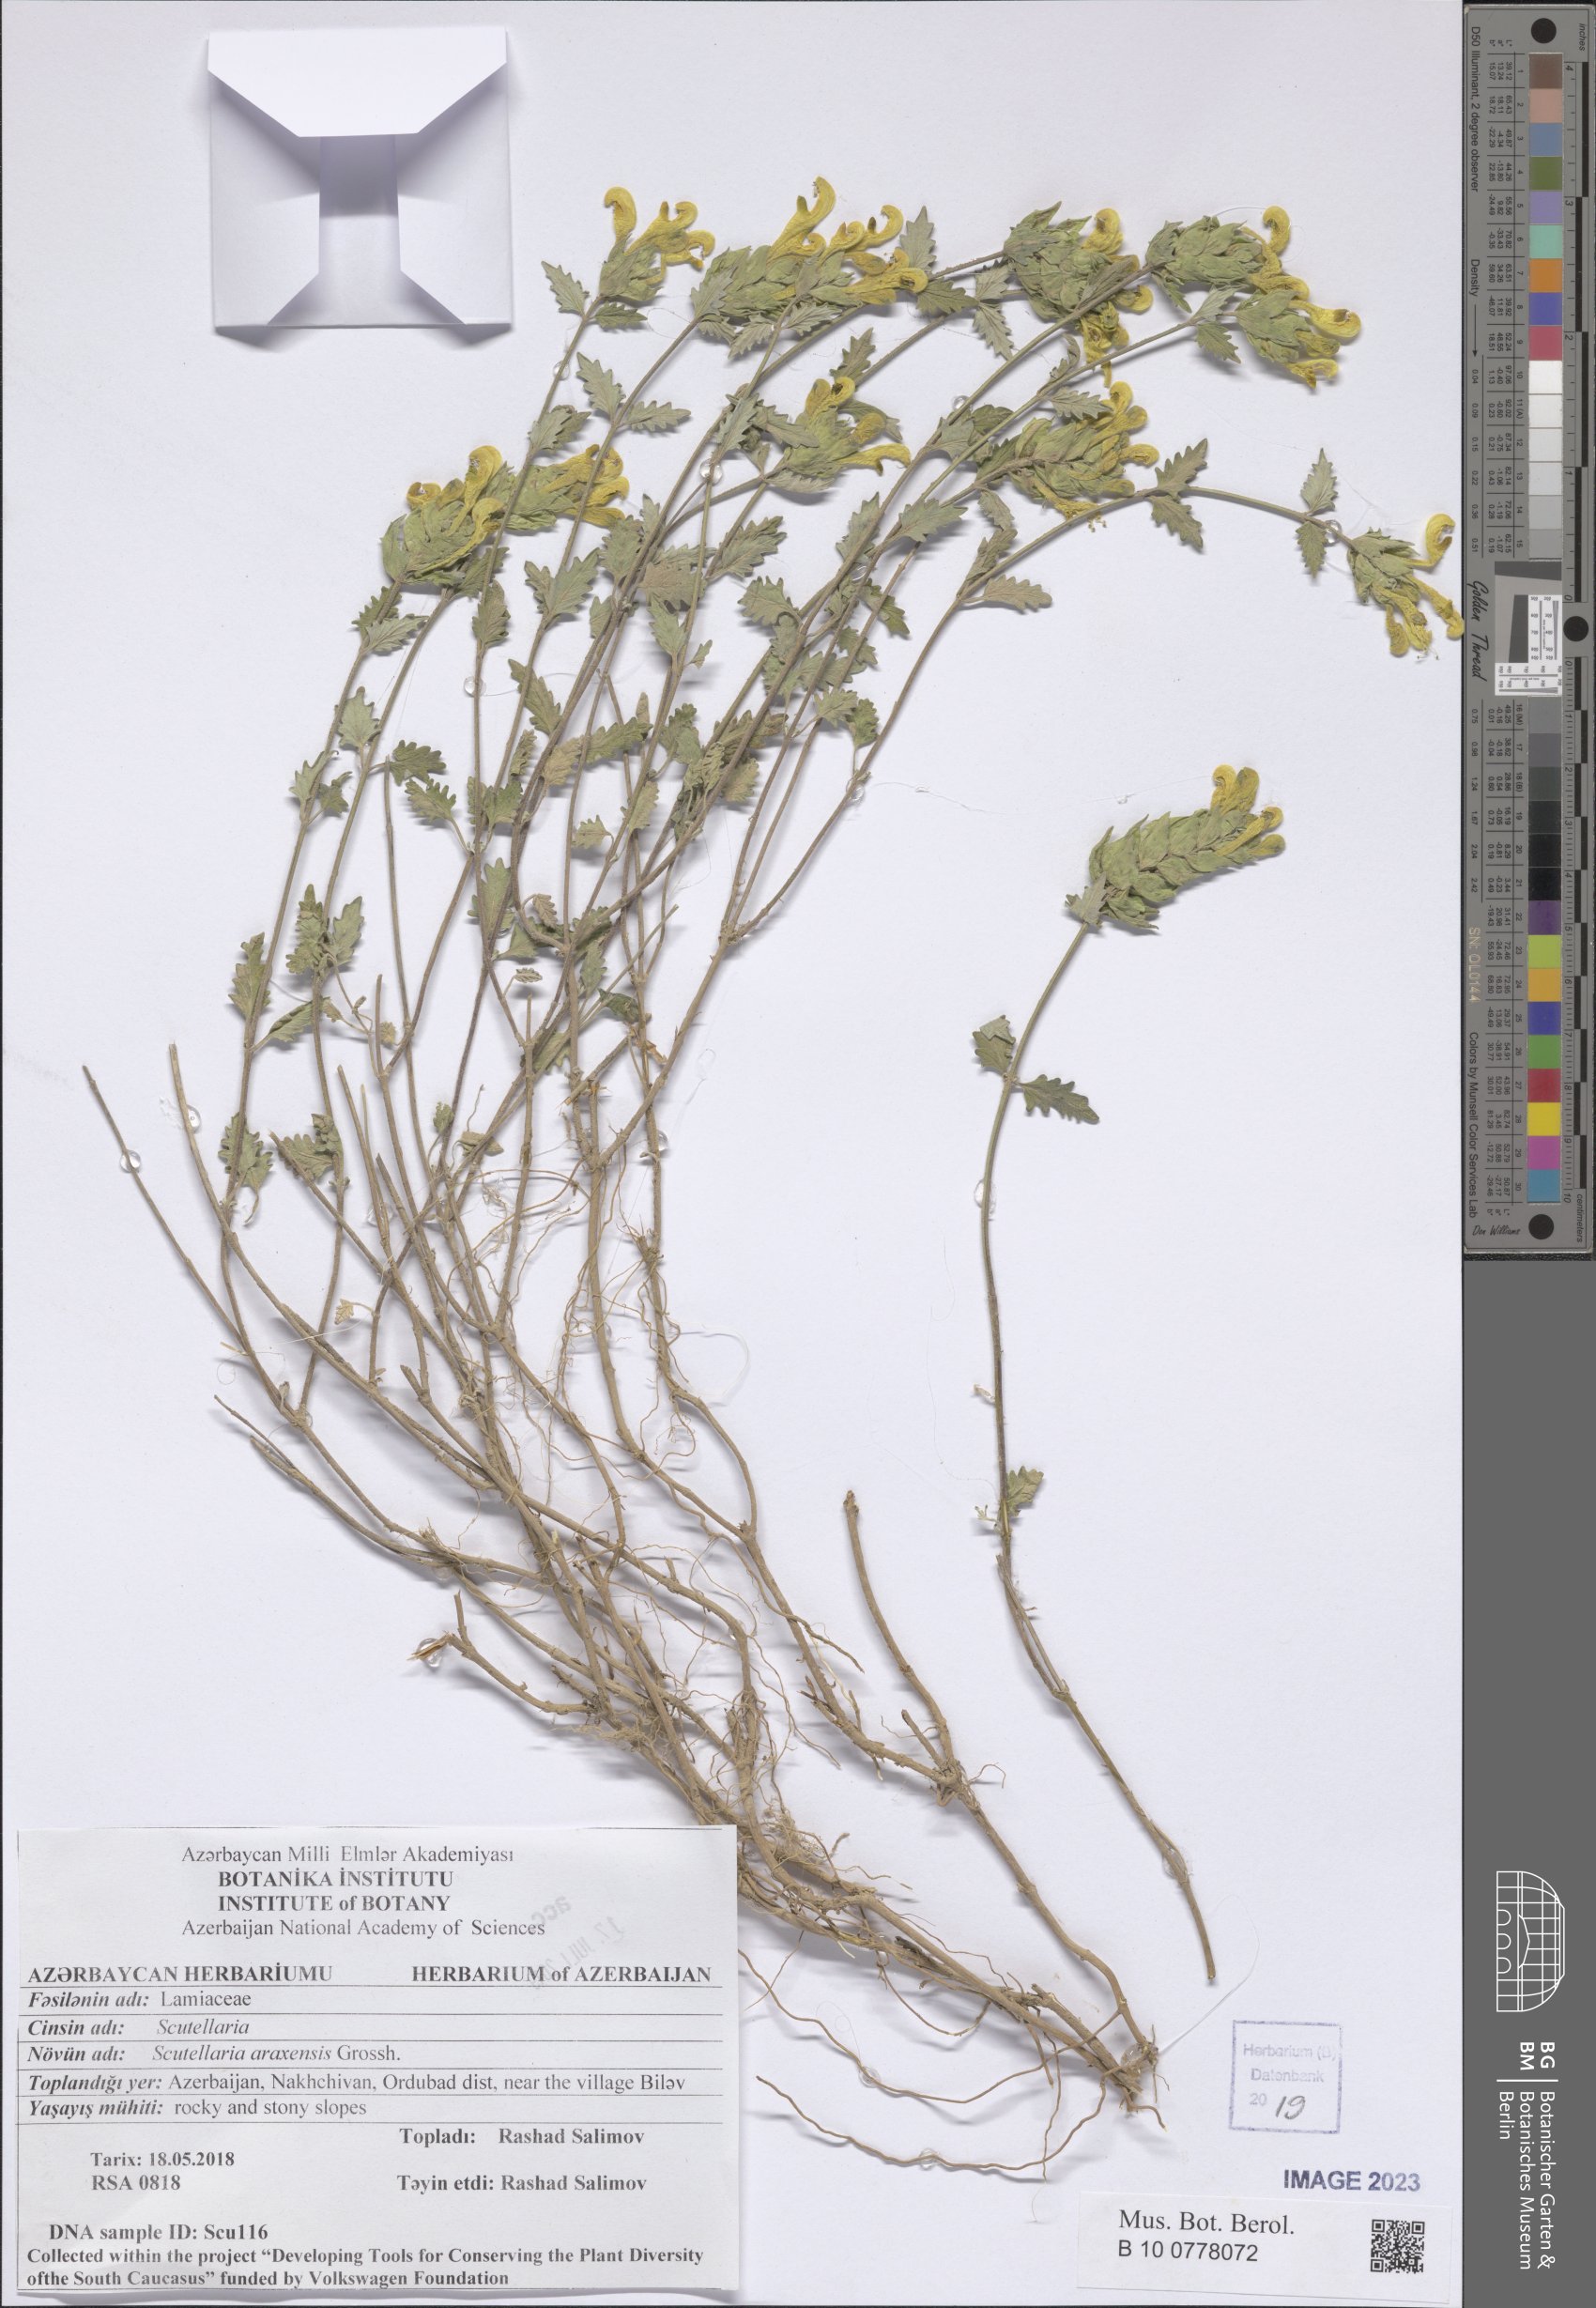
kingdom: Plantae
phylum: Tracheophyta
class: Magnoliopsida
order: Lamiales
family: Lamiaceae
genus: Scutellaria
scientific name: Scutellaria araxensis
